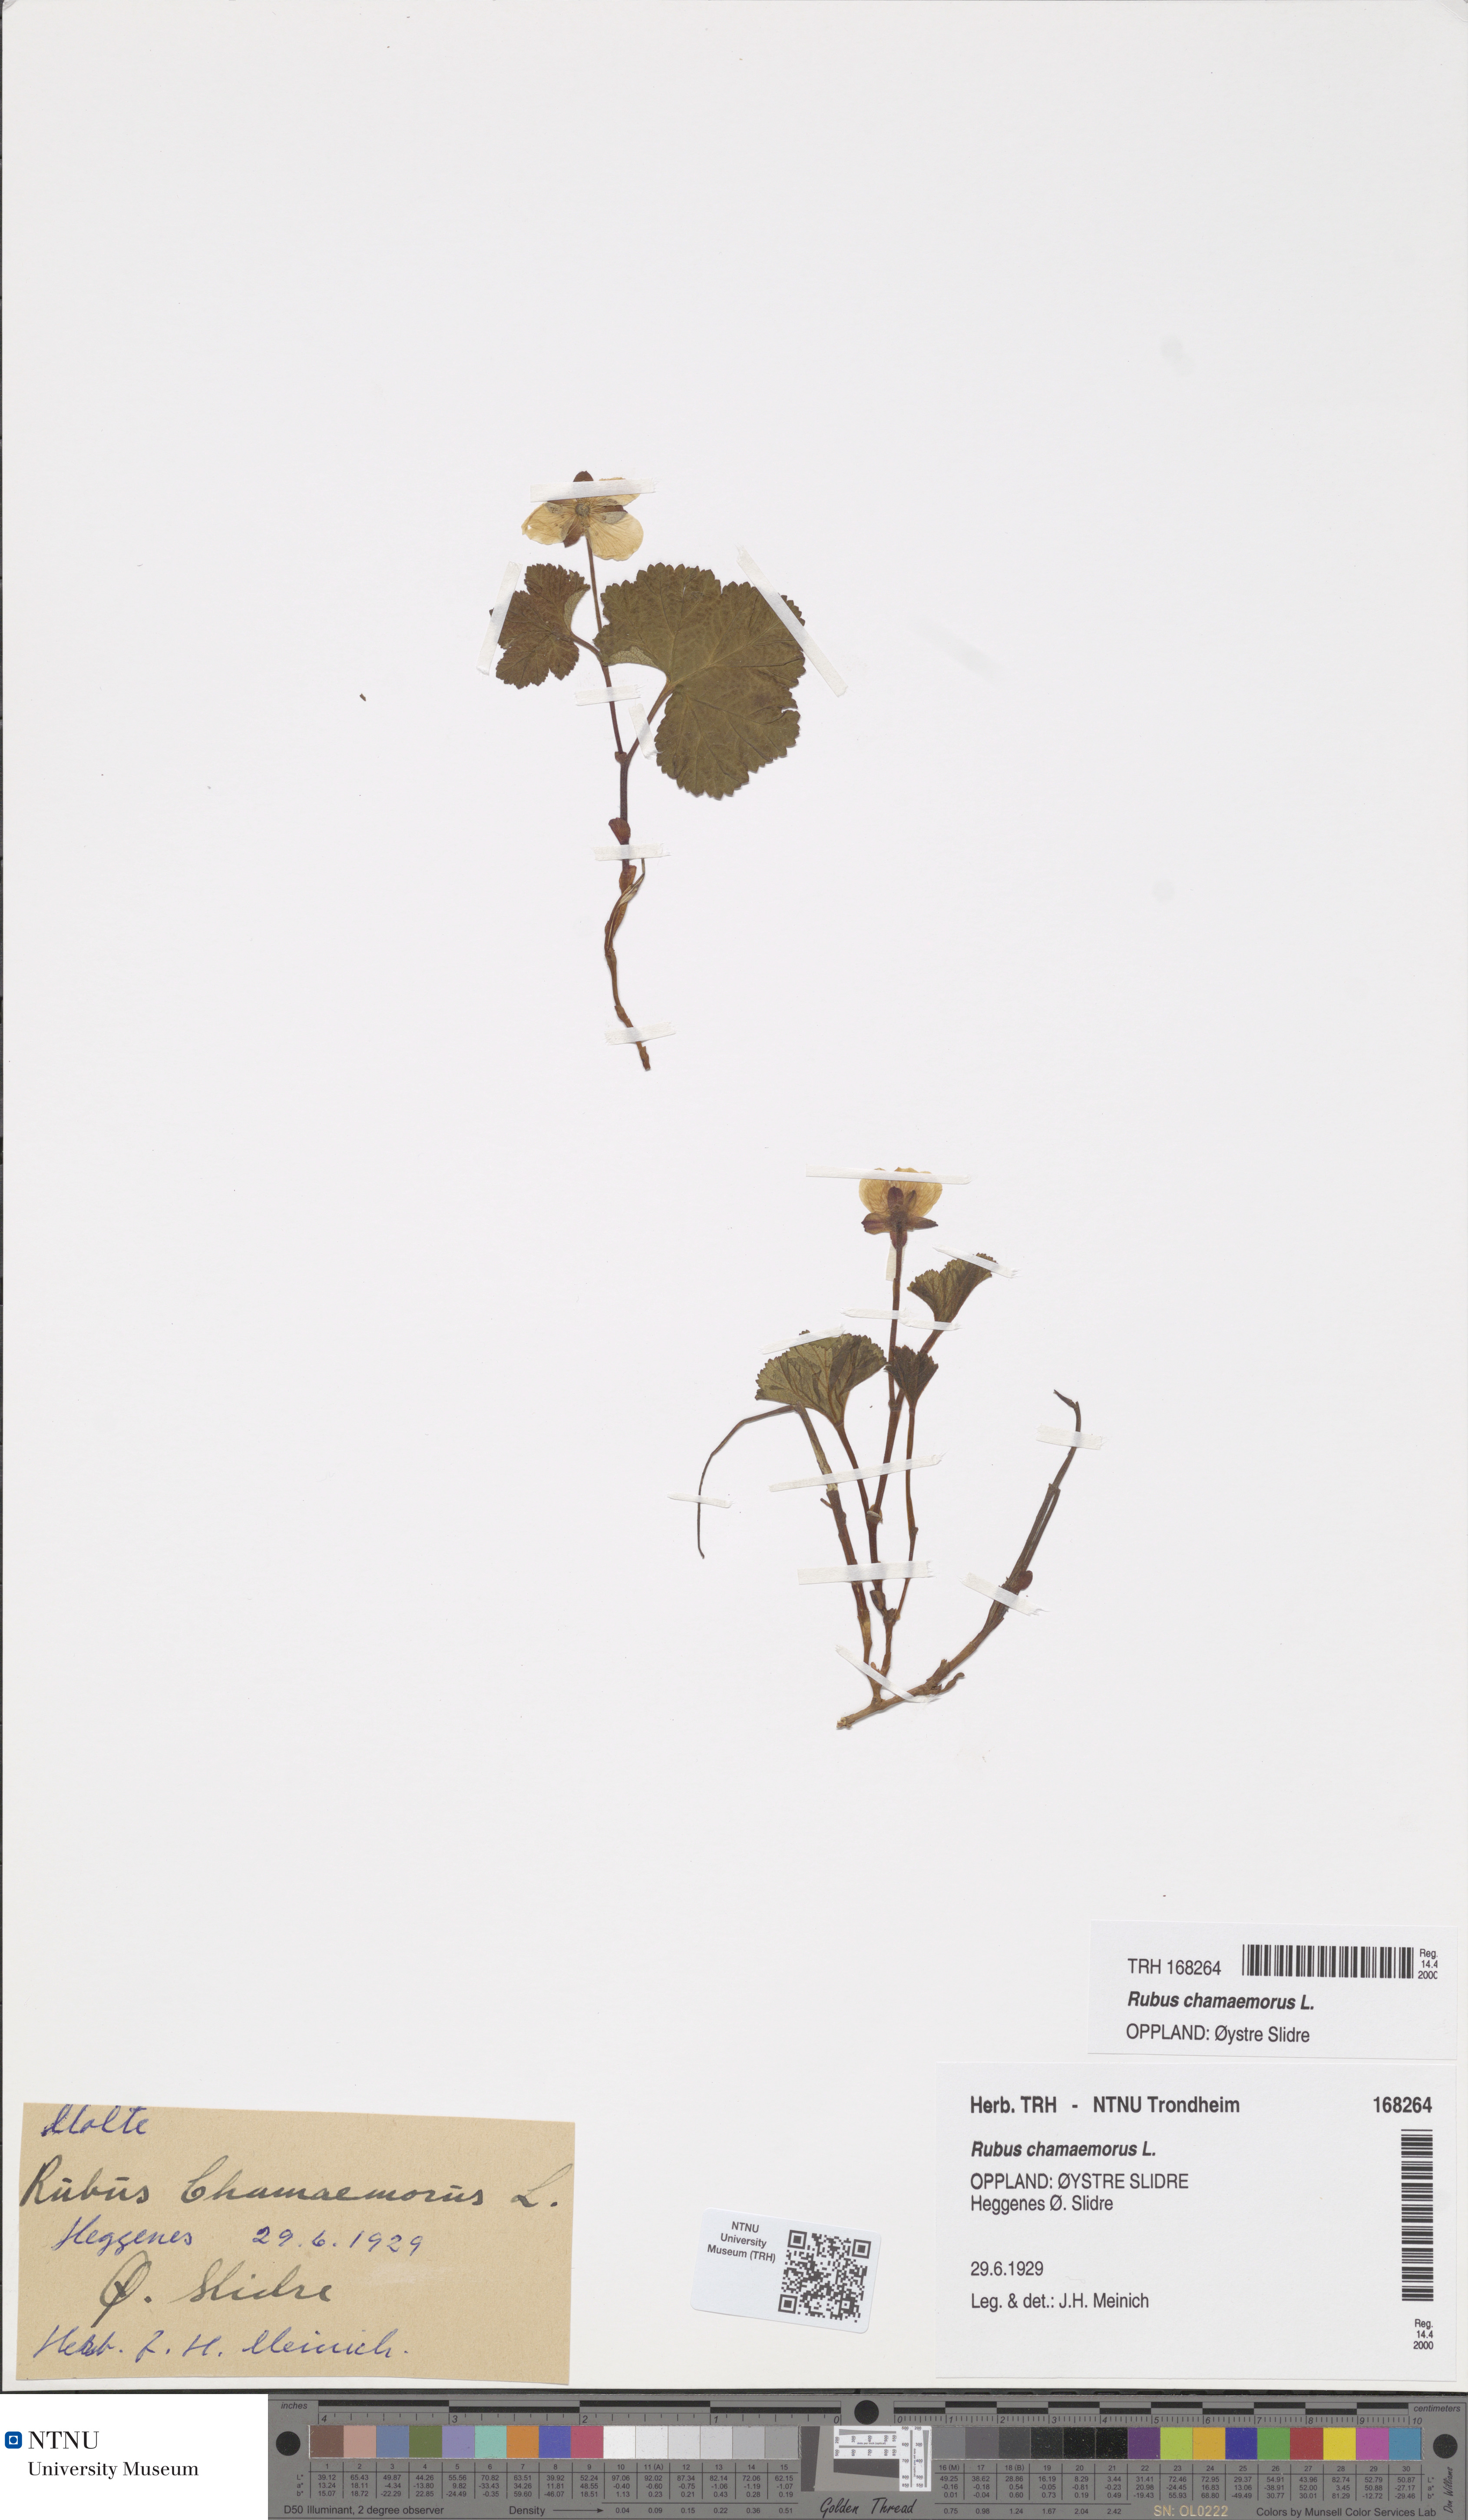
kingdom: Plantae
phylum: Tracheophyta
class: Magnoliopsida
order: Rosales
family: Rosaceae
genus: Rubus
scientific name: Rubus chamaemorus
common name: Cloudberry
